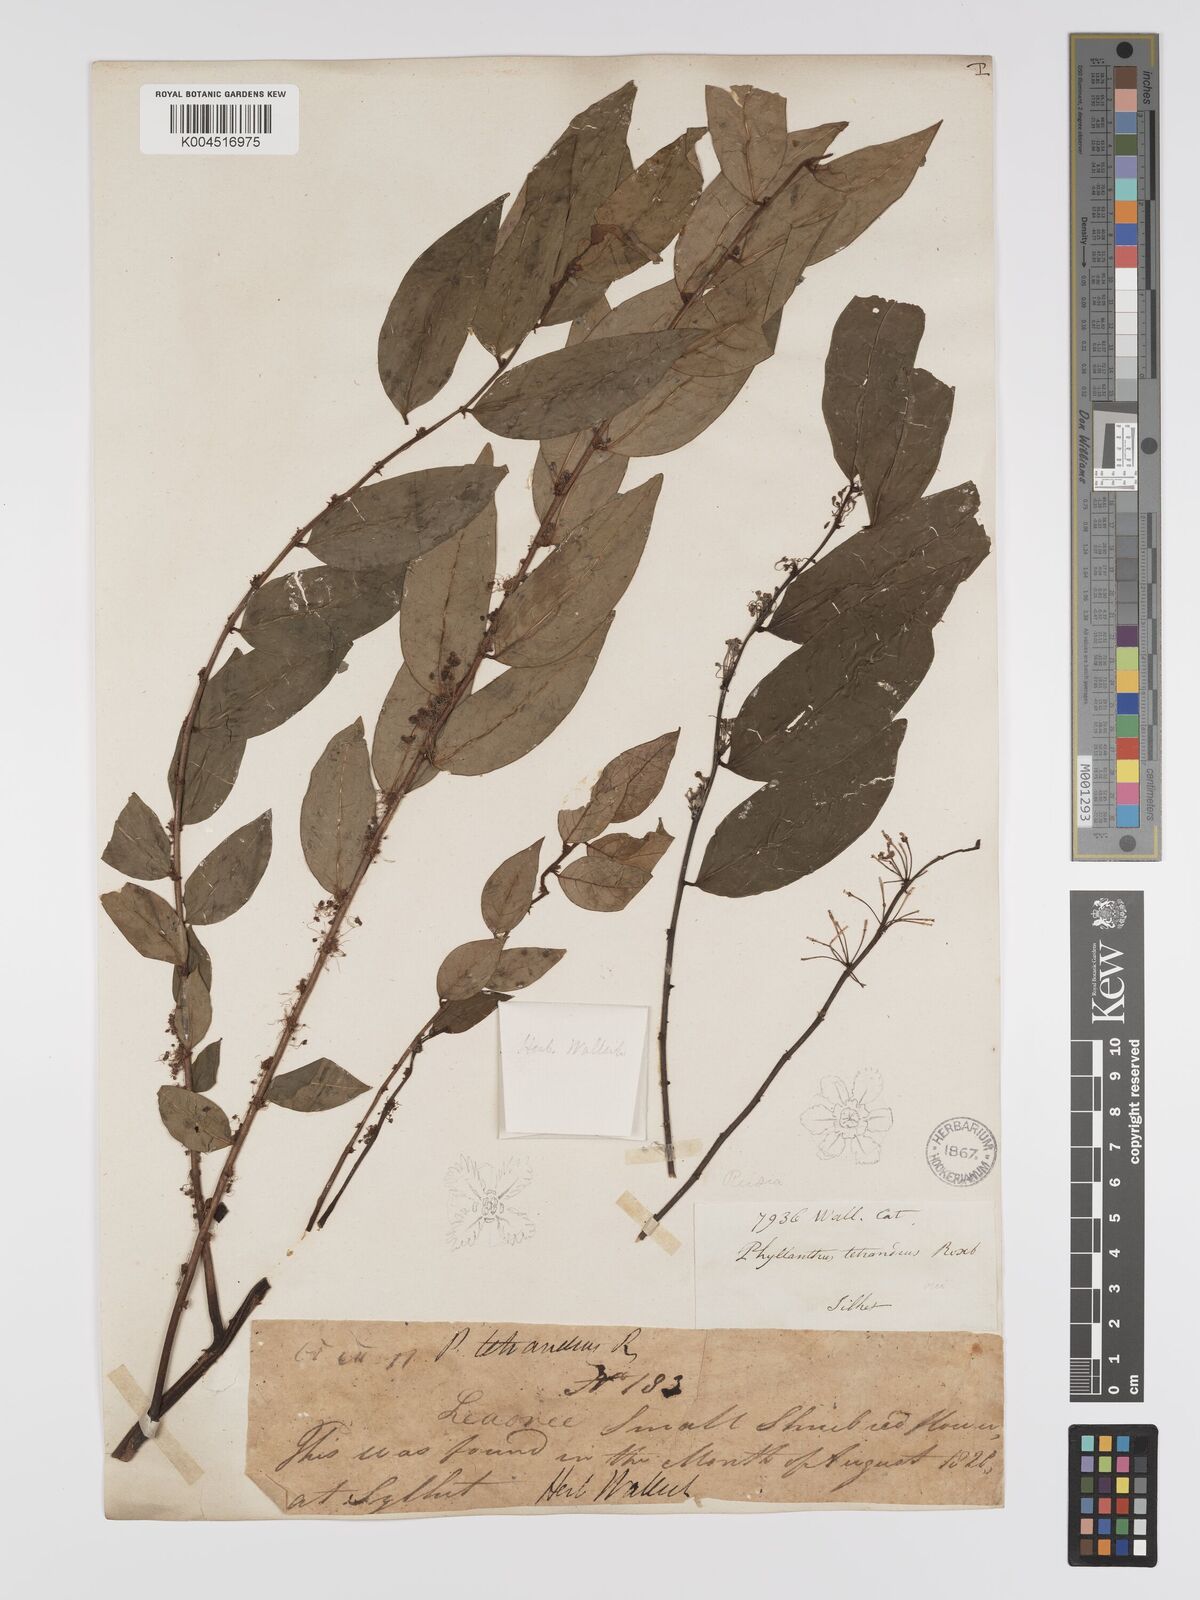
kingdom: Plantae
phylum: Tracheophyta
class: Magnoliopsida
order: Malpighiales
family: Phyllanthaceae
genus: Phyllanthus
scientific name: Phyllanthus tetrandrus
